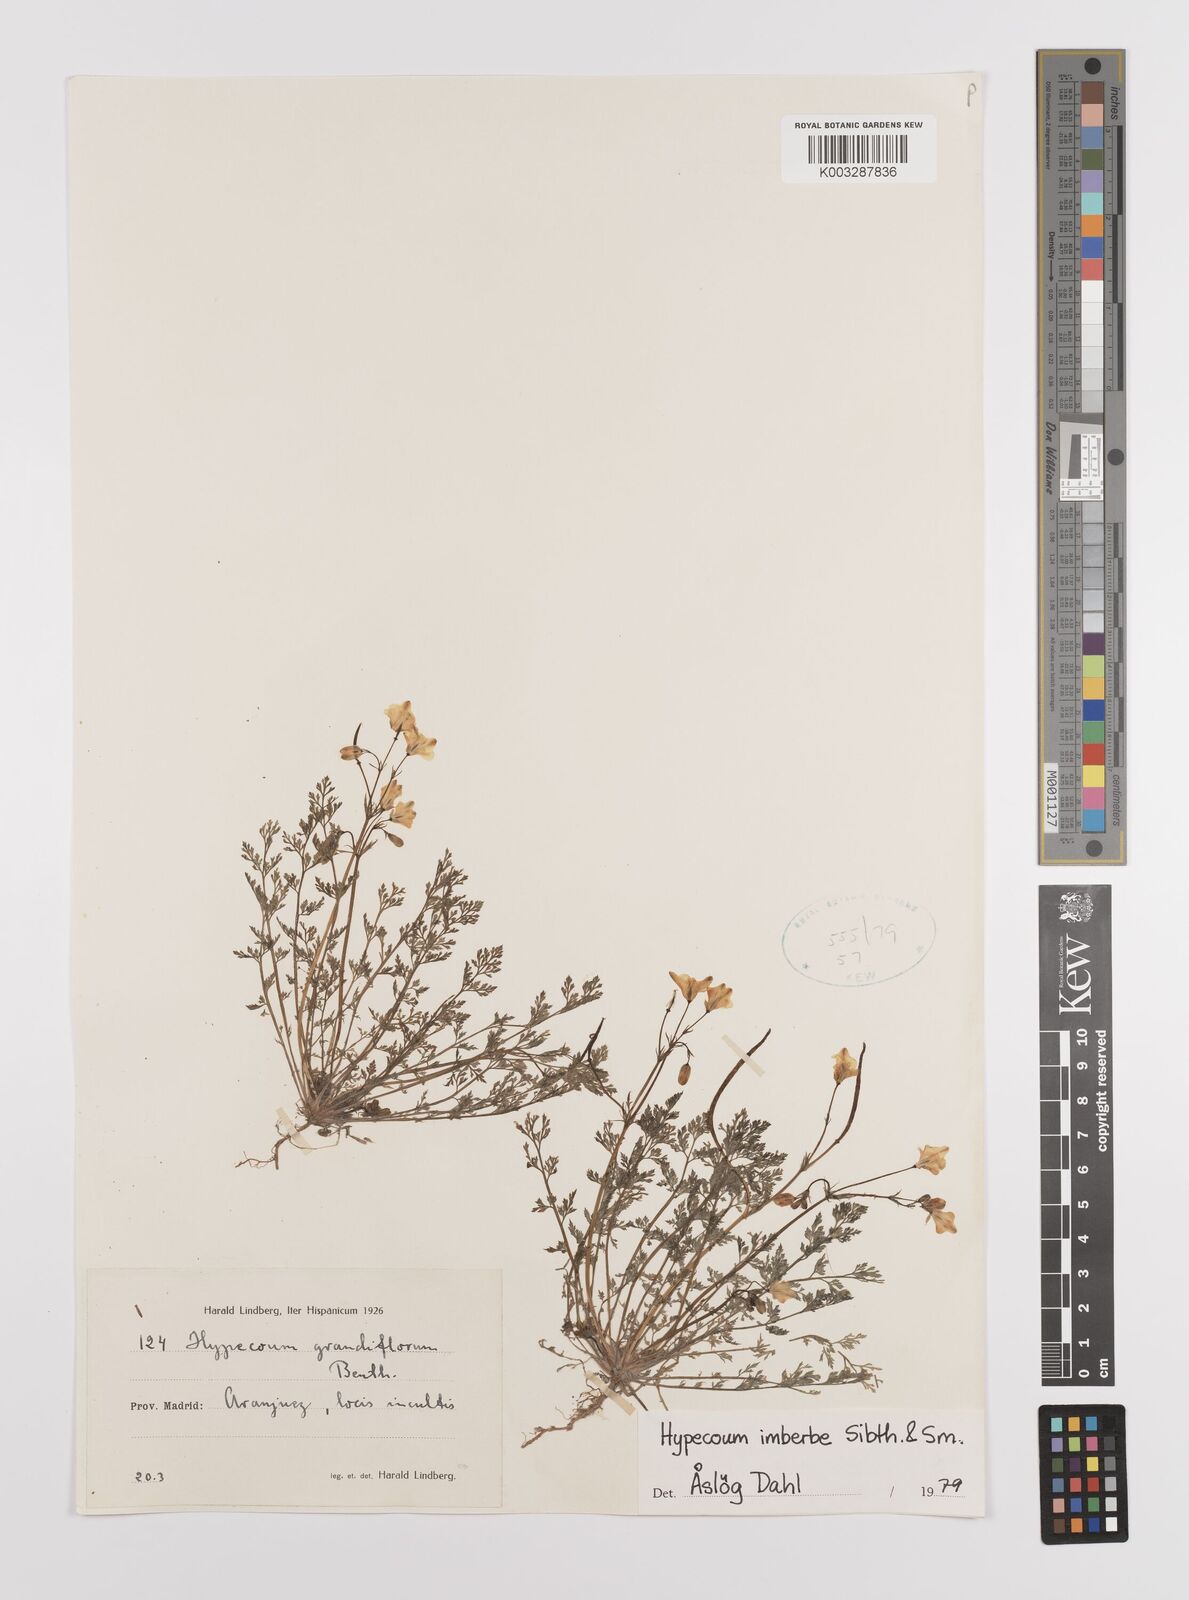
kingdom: Plantae
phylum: Tracheophyta
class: Magnoliopsida
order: Ranunculales
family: Papaveraceae
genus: Hypecoum
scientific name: Hypecoum imberbe
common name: Sicklefruit hypecoum
